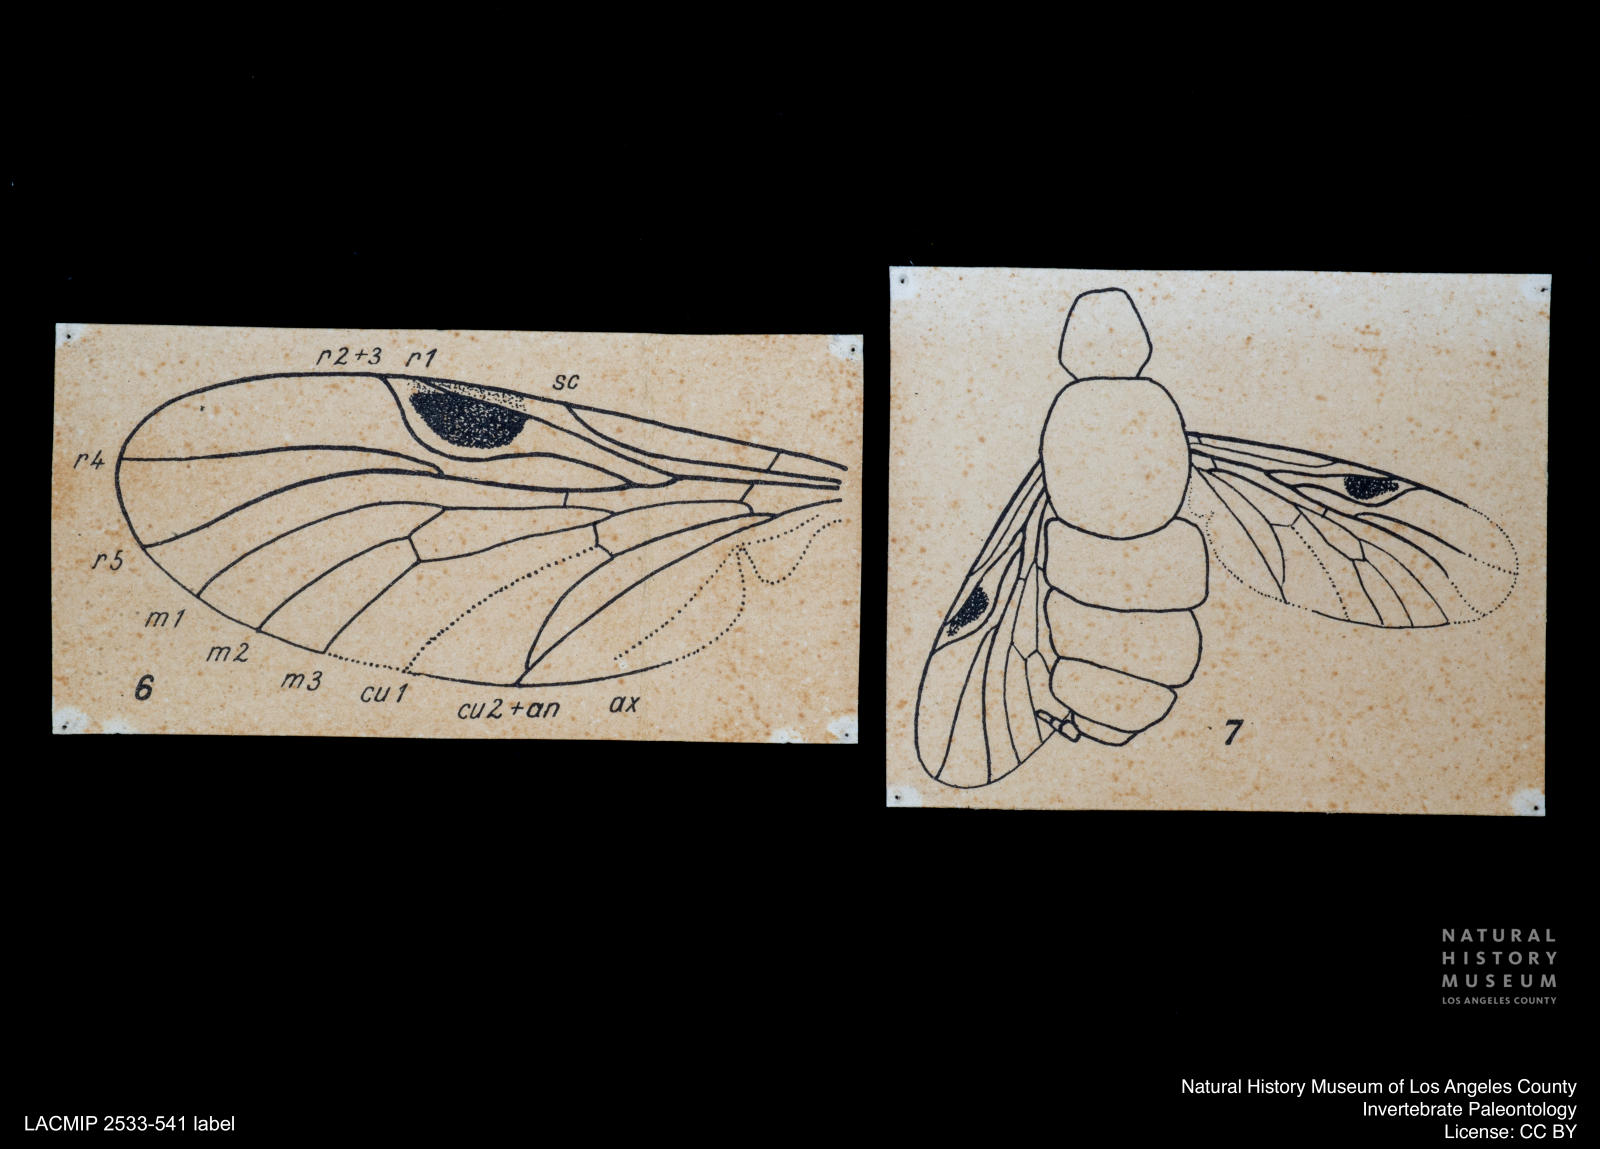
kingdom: Animalia
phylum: Arthropoda
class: Insecta
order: Diptera
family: Rhagionidae
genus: Chrysopilus
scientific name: Chrysopilus praestigmaticus
